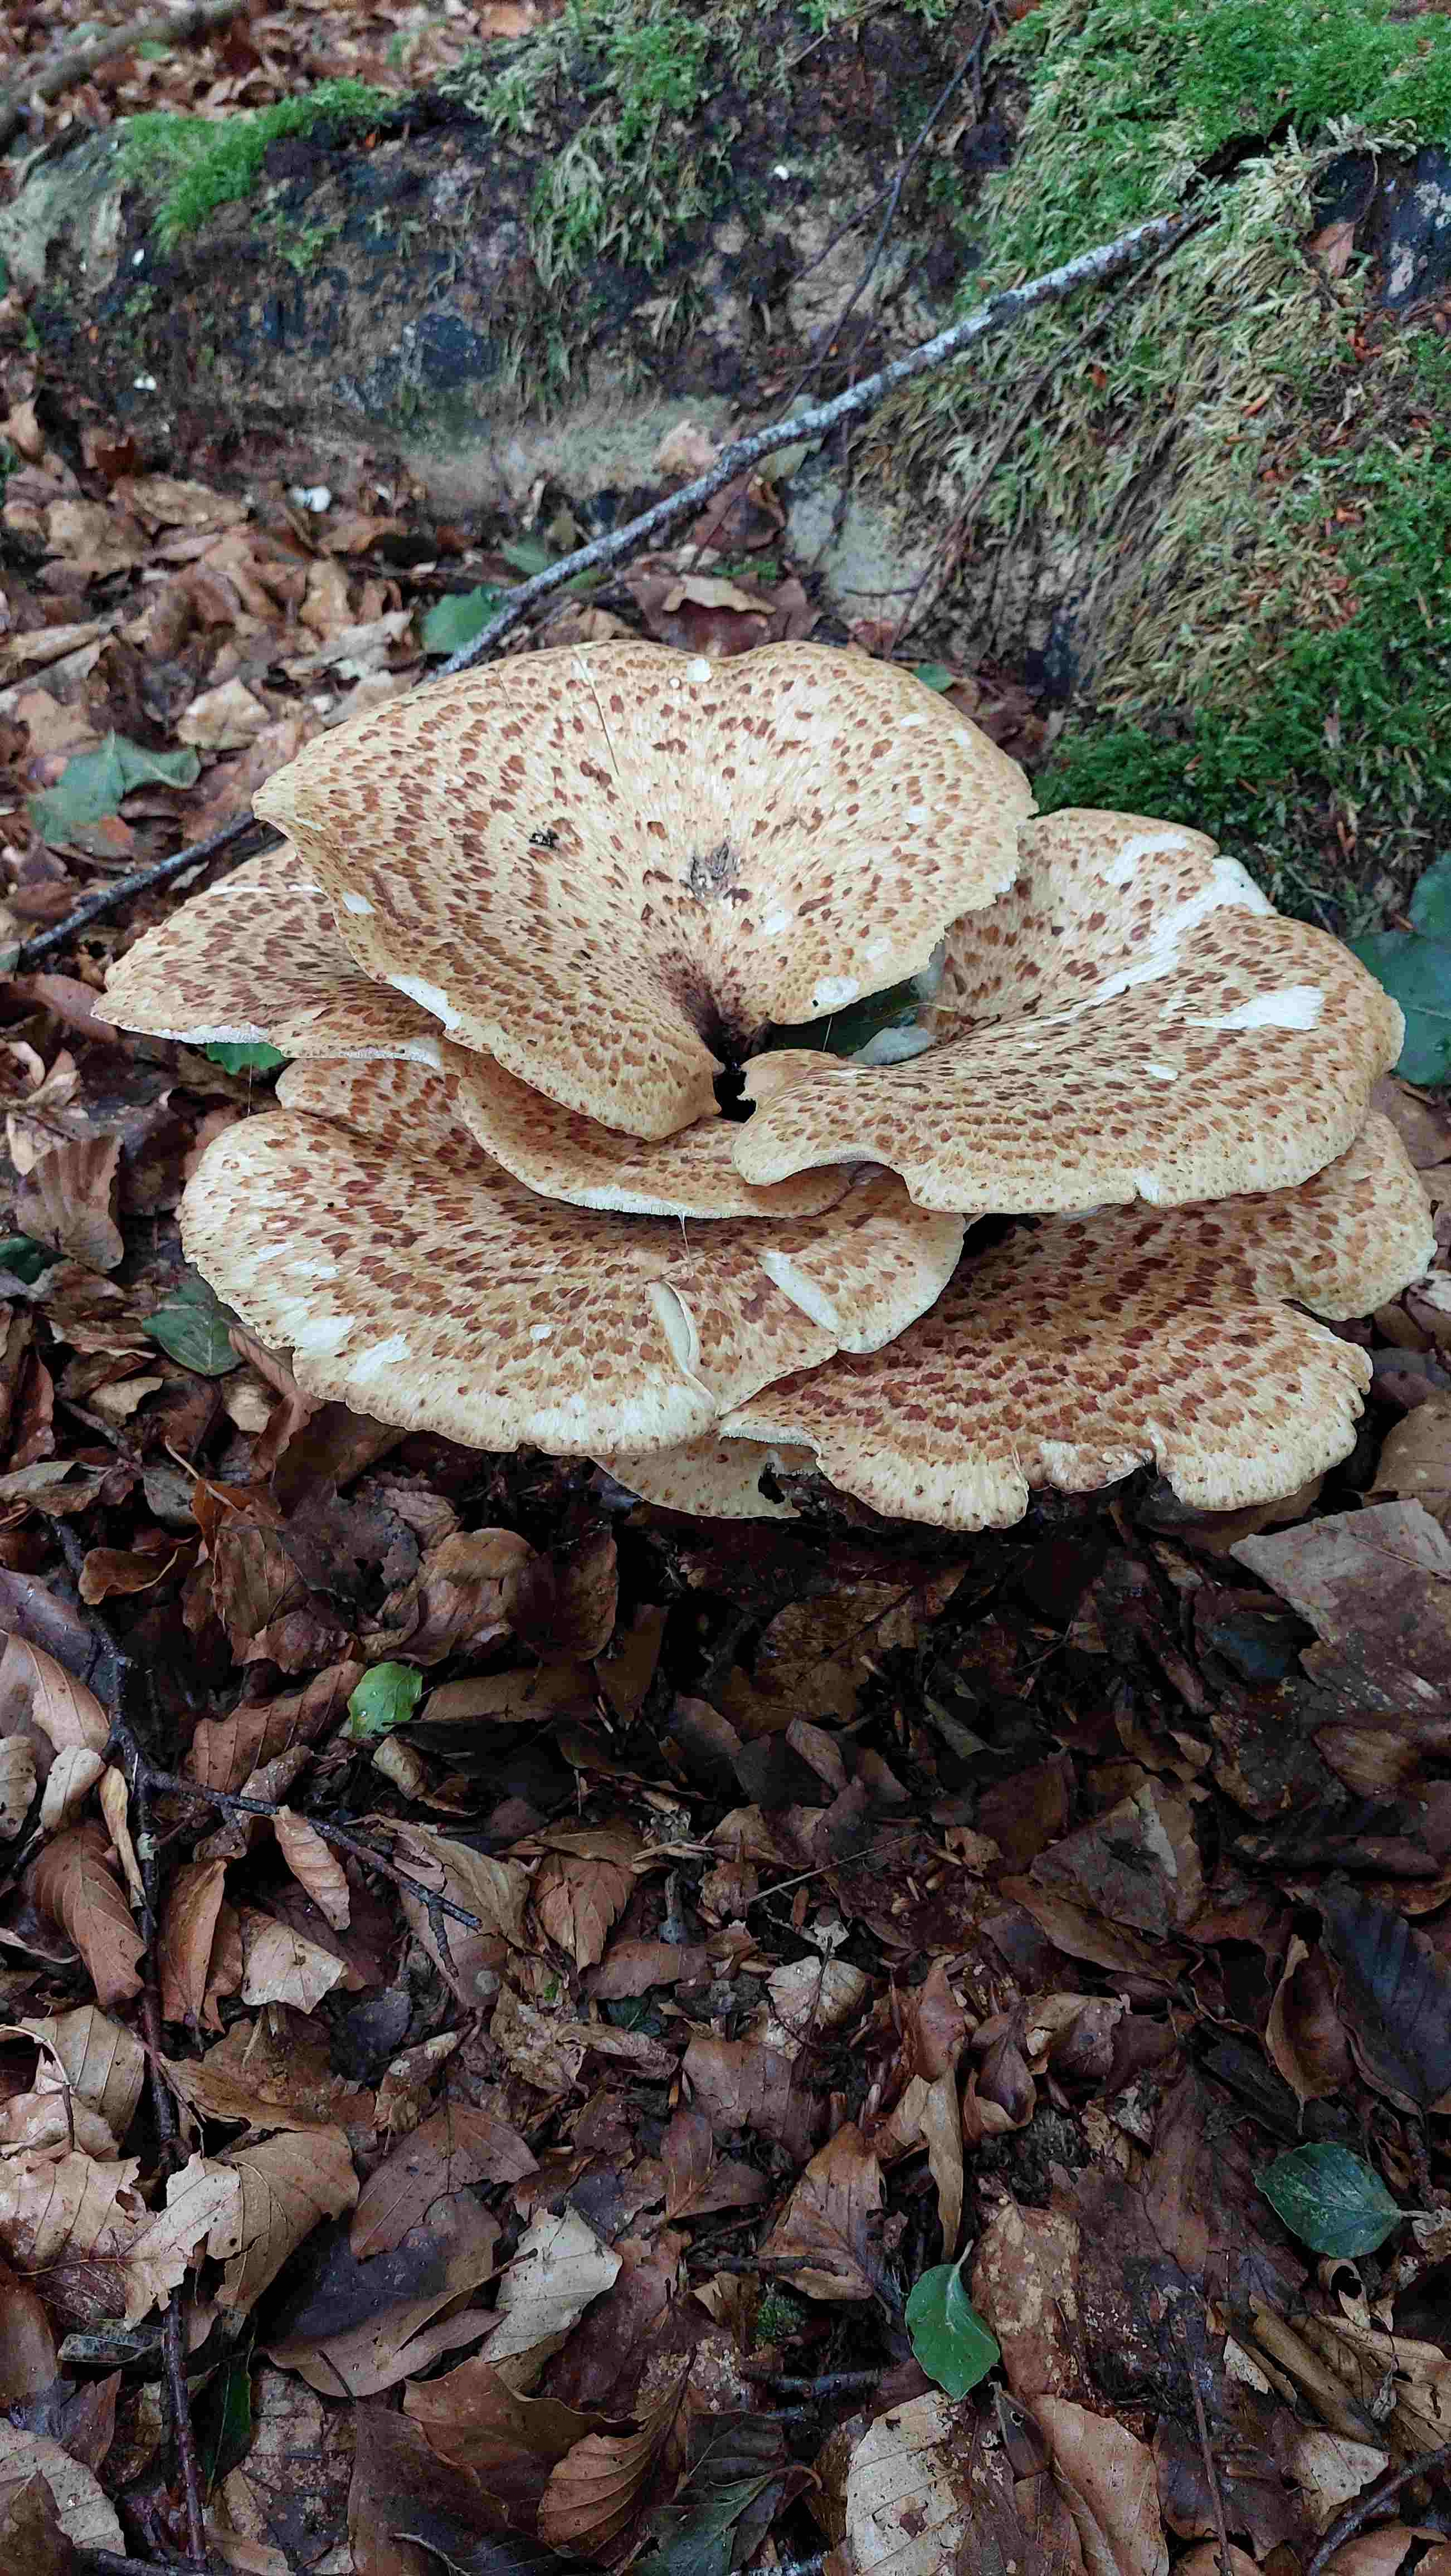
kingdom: Fungi
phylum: Basidiomycota
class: Agaricomycetes
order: Polyporales
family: Polyporaceae
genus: Cerioporus
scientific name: Cerioporus squamosus
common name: skællet stilkporesvamp
